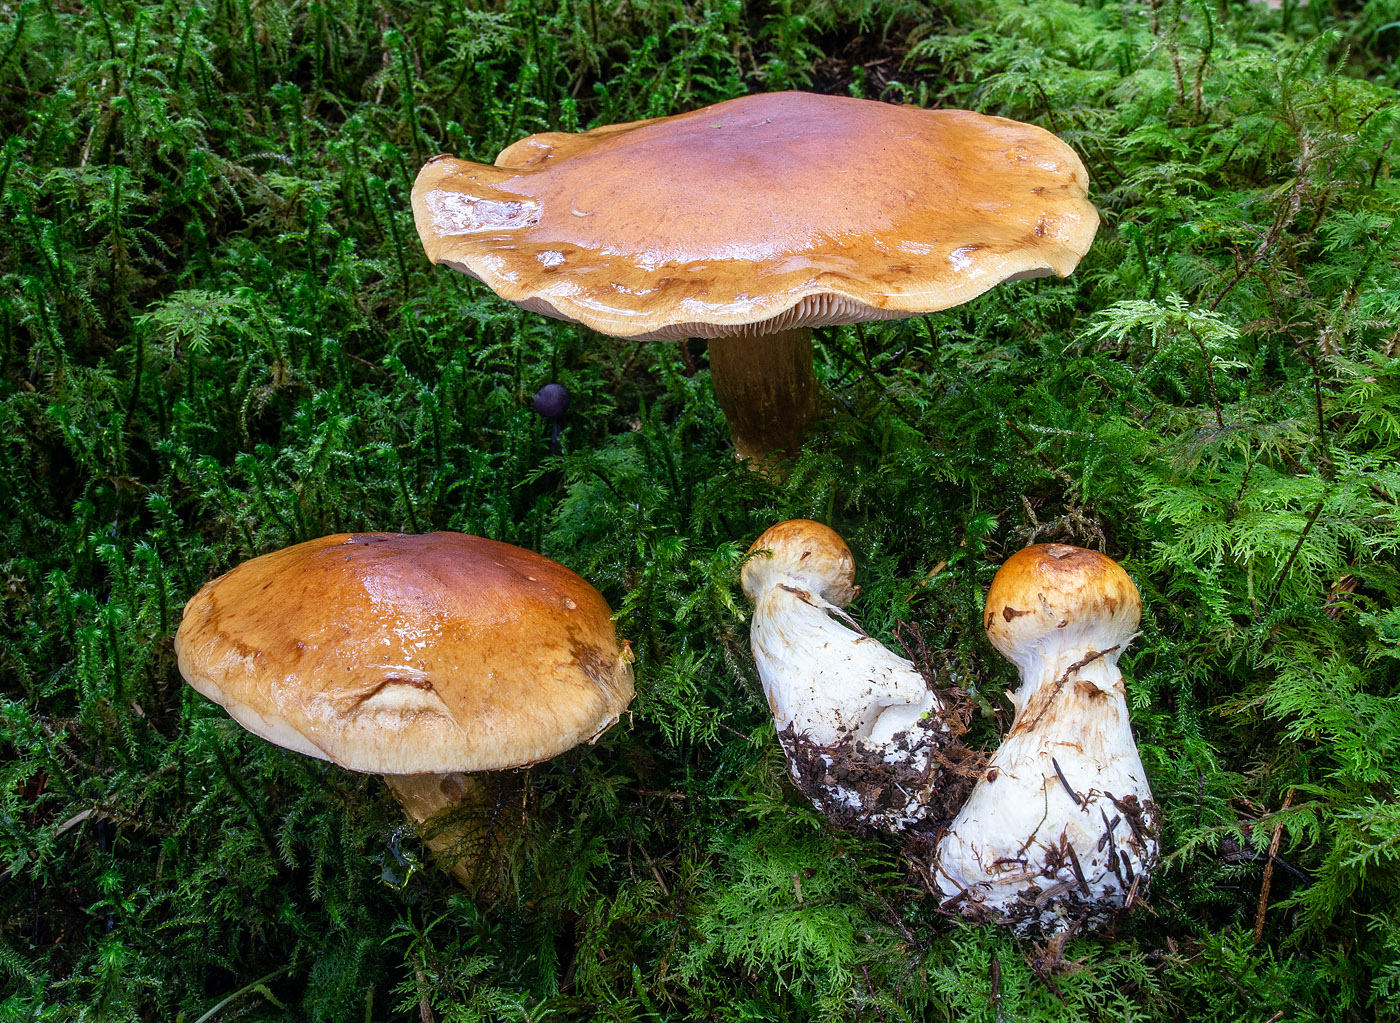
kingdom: Fungi
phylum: Basidiomycota
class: Agaricomycetes
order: Agaricales
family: Cortinariaceae
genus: Phlegmacium
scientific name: Phlegmacium saginum
